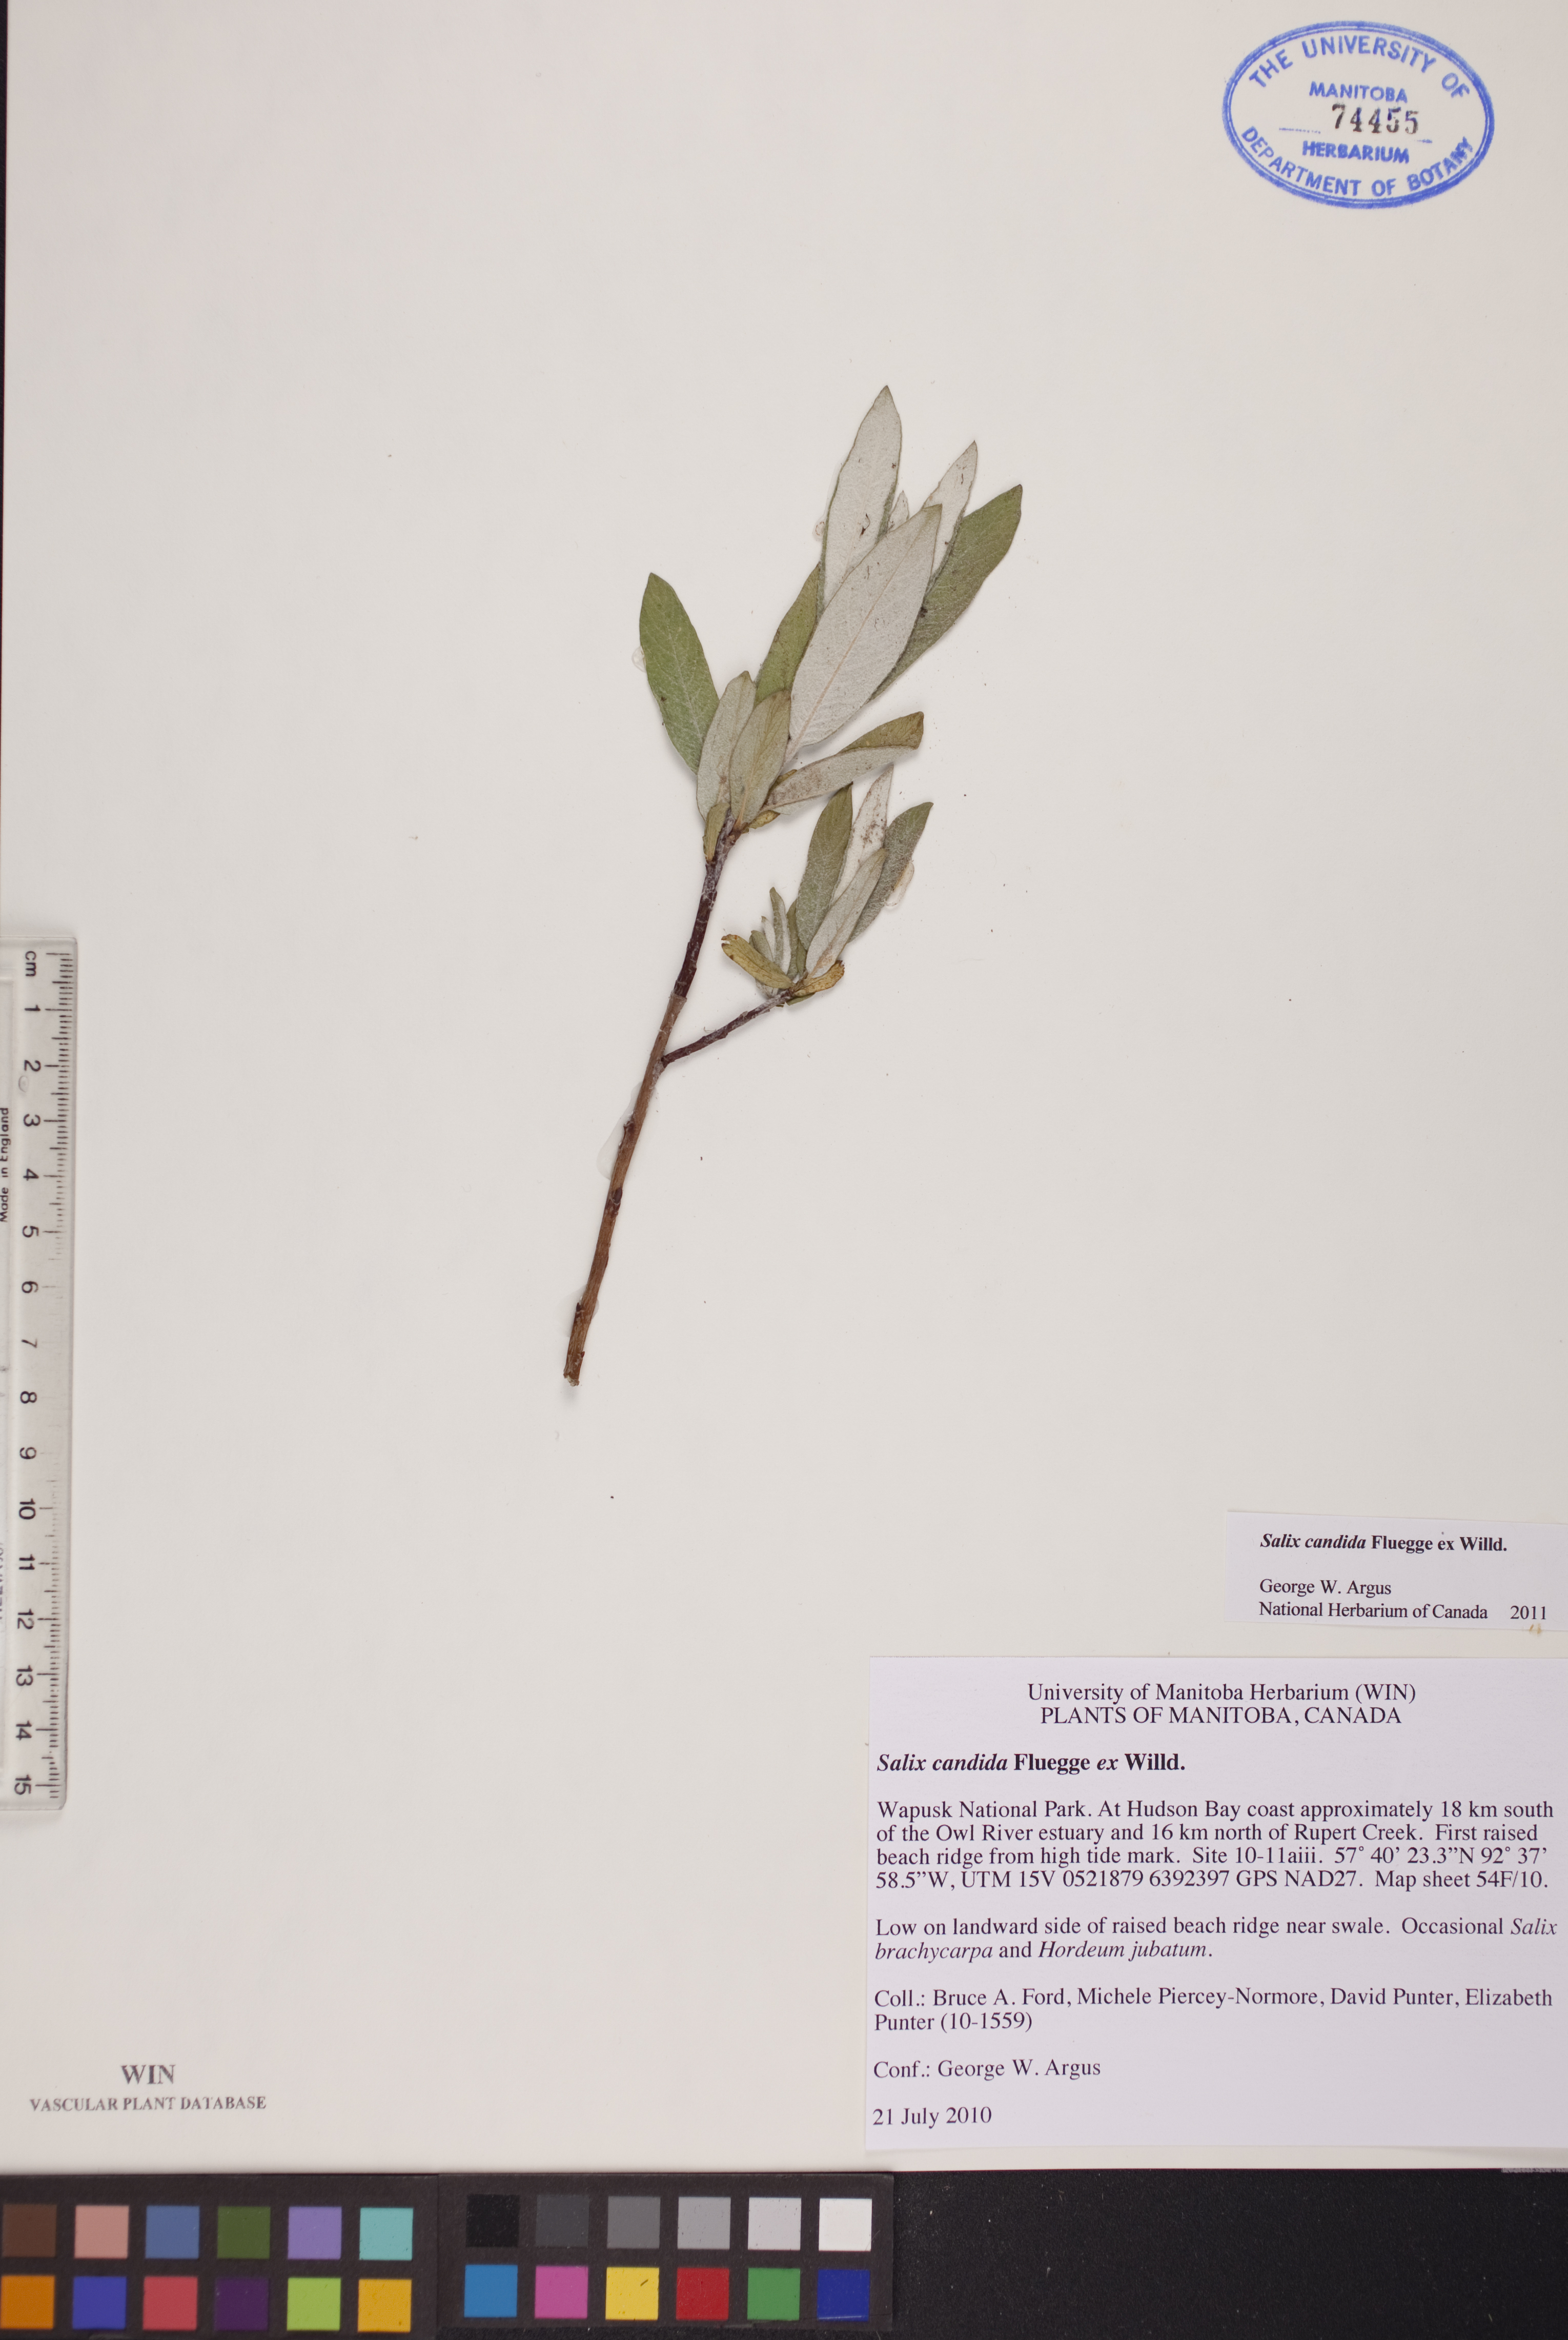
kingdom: Plantae
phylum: Tracheophyta
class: Magnoliopsida
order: Malpighiales
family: Salicaceae
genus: Salix
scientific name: Salix candida
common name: Hoary willow
